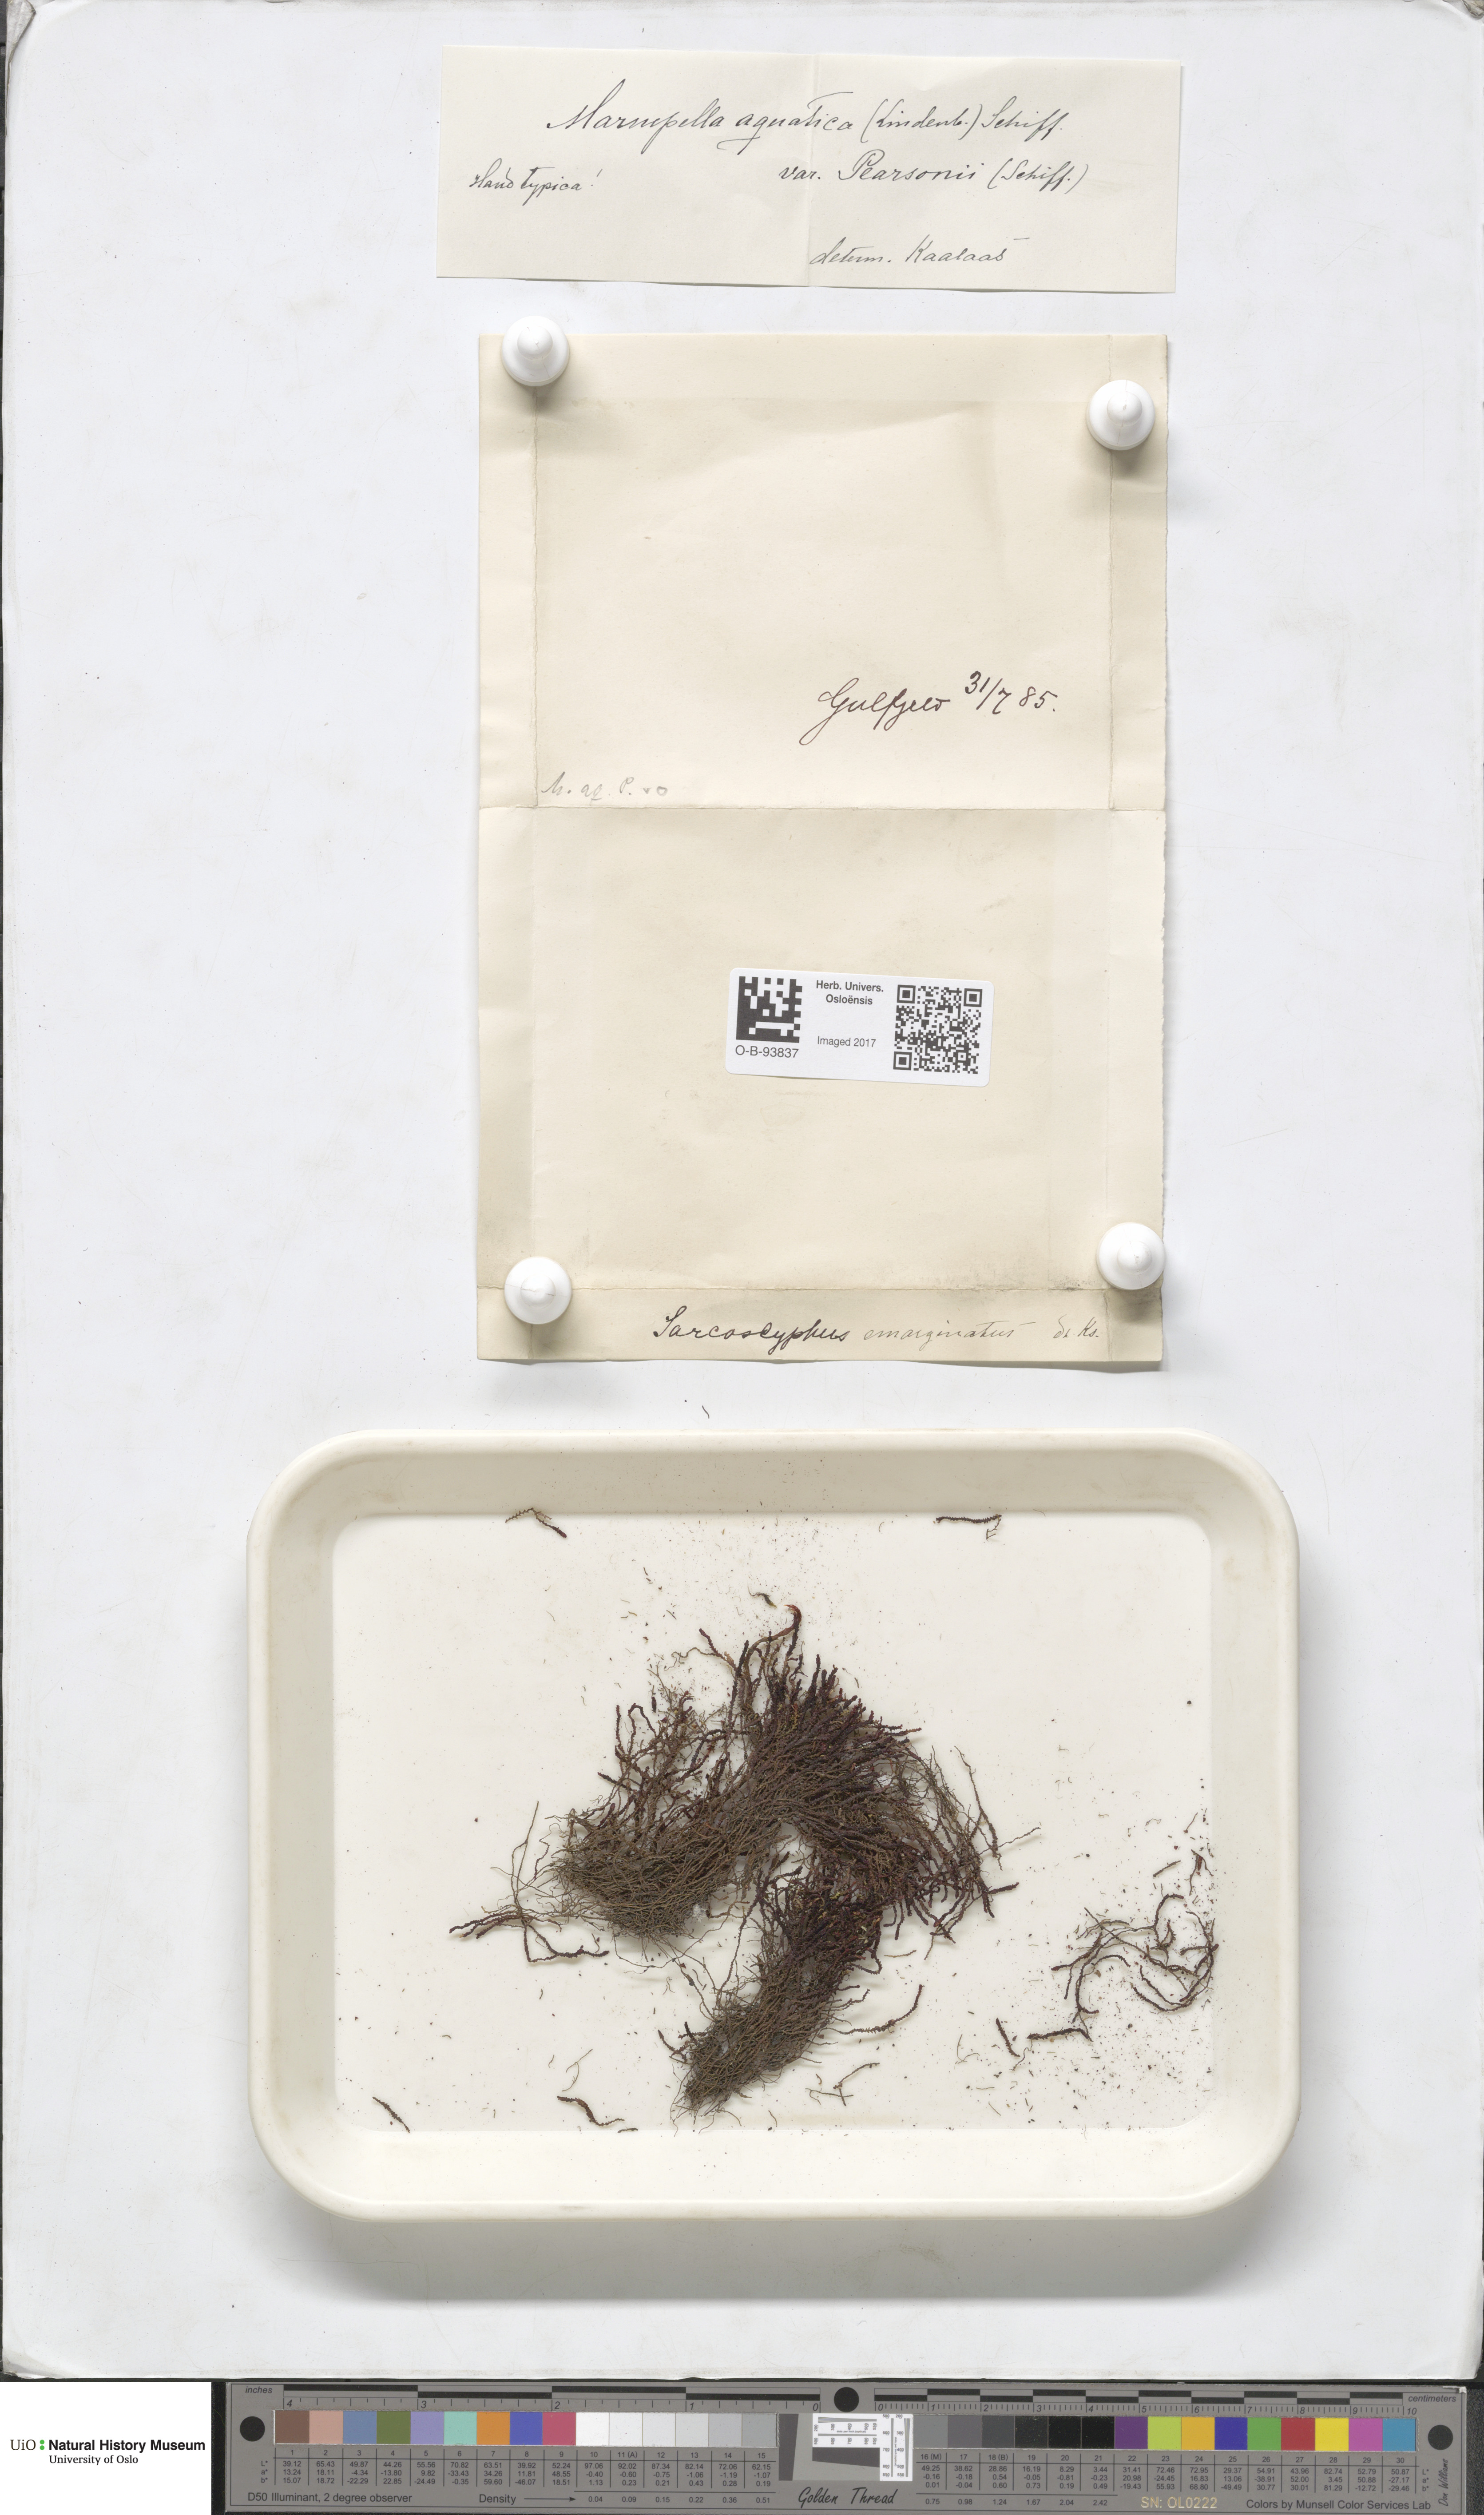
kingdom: Plantae
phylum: Marchantiophyta
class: Jungermanniopsida
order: Jungermanniales
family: Gymnomitriaceae
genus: Marsupella
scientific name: Marsupella emarginata
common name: Notched rustwort
